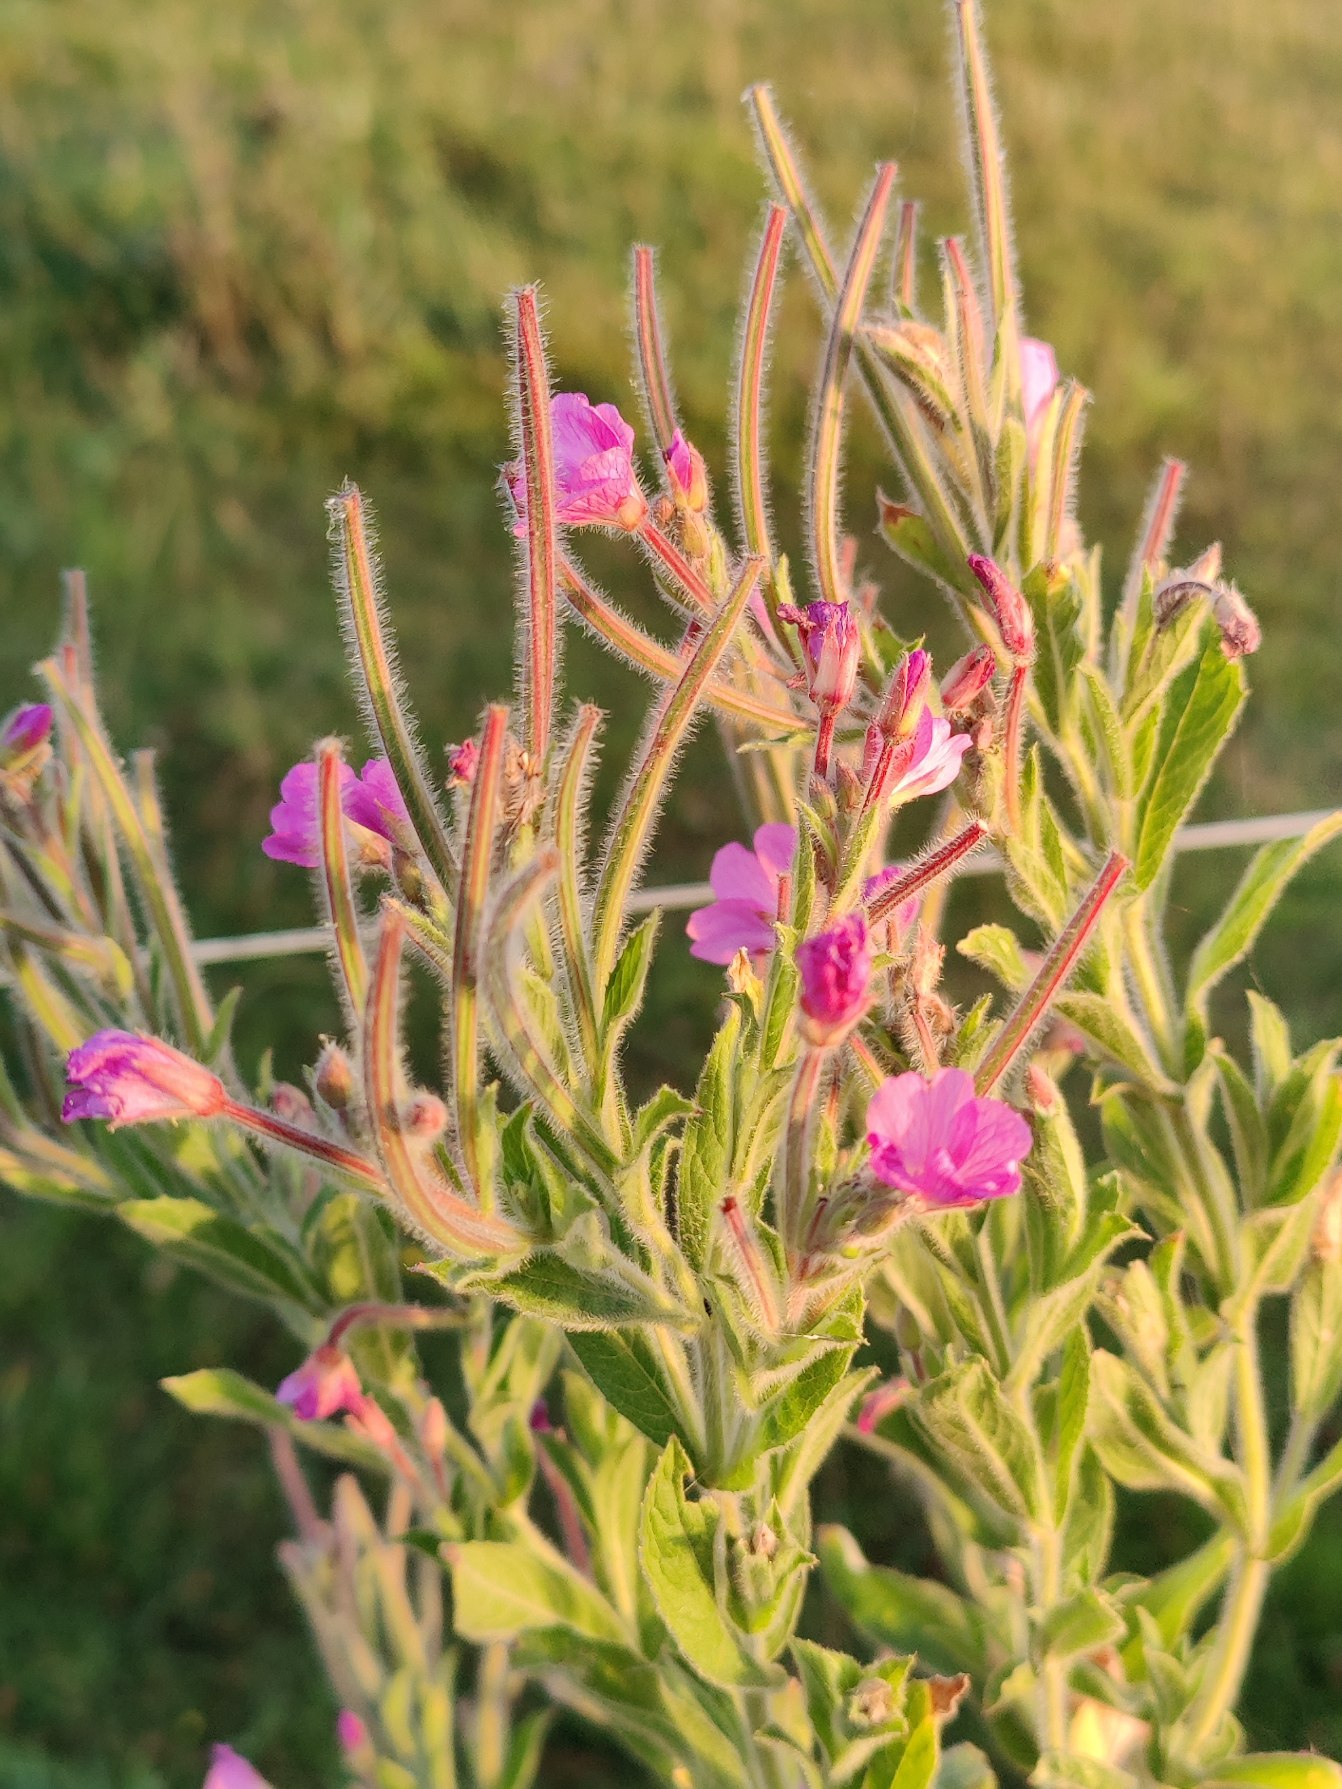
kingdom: Plantae
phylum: Tracheophyta
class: Magnoliopsida
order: Myrtales
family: Onagraceae
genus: Epilobium
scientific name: Epilobium hirsutum
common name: Lådden dueurt
